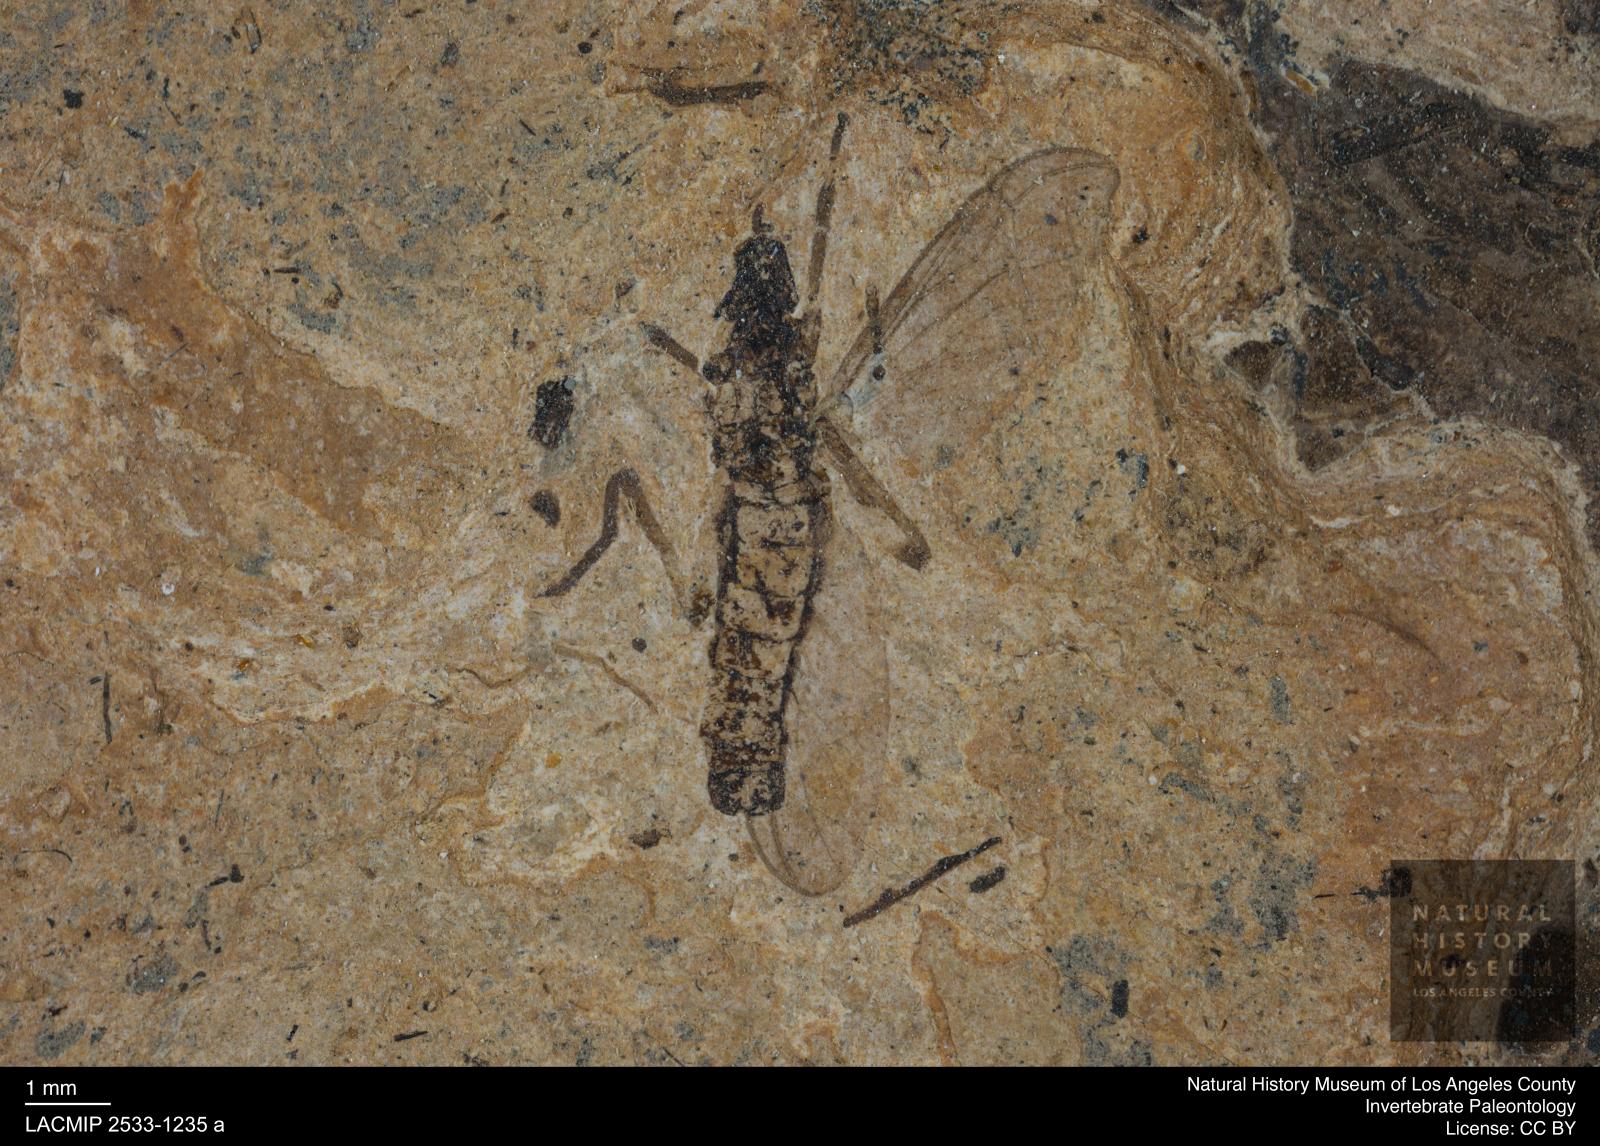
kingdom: Animalia
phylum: Arthropoda
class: Insecta
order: Diptera
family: Bibionidae
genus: Plecia
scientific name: Plecia
